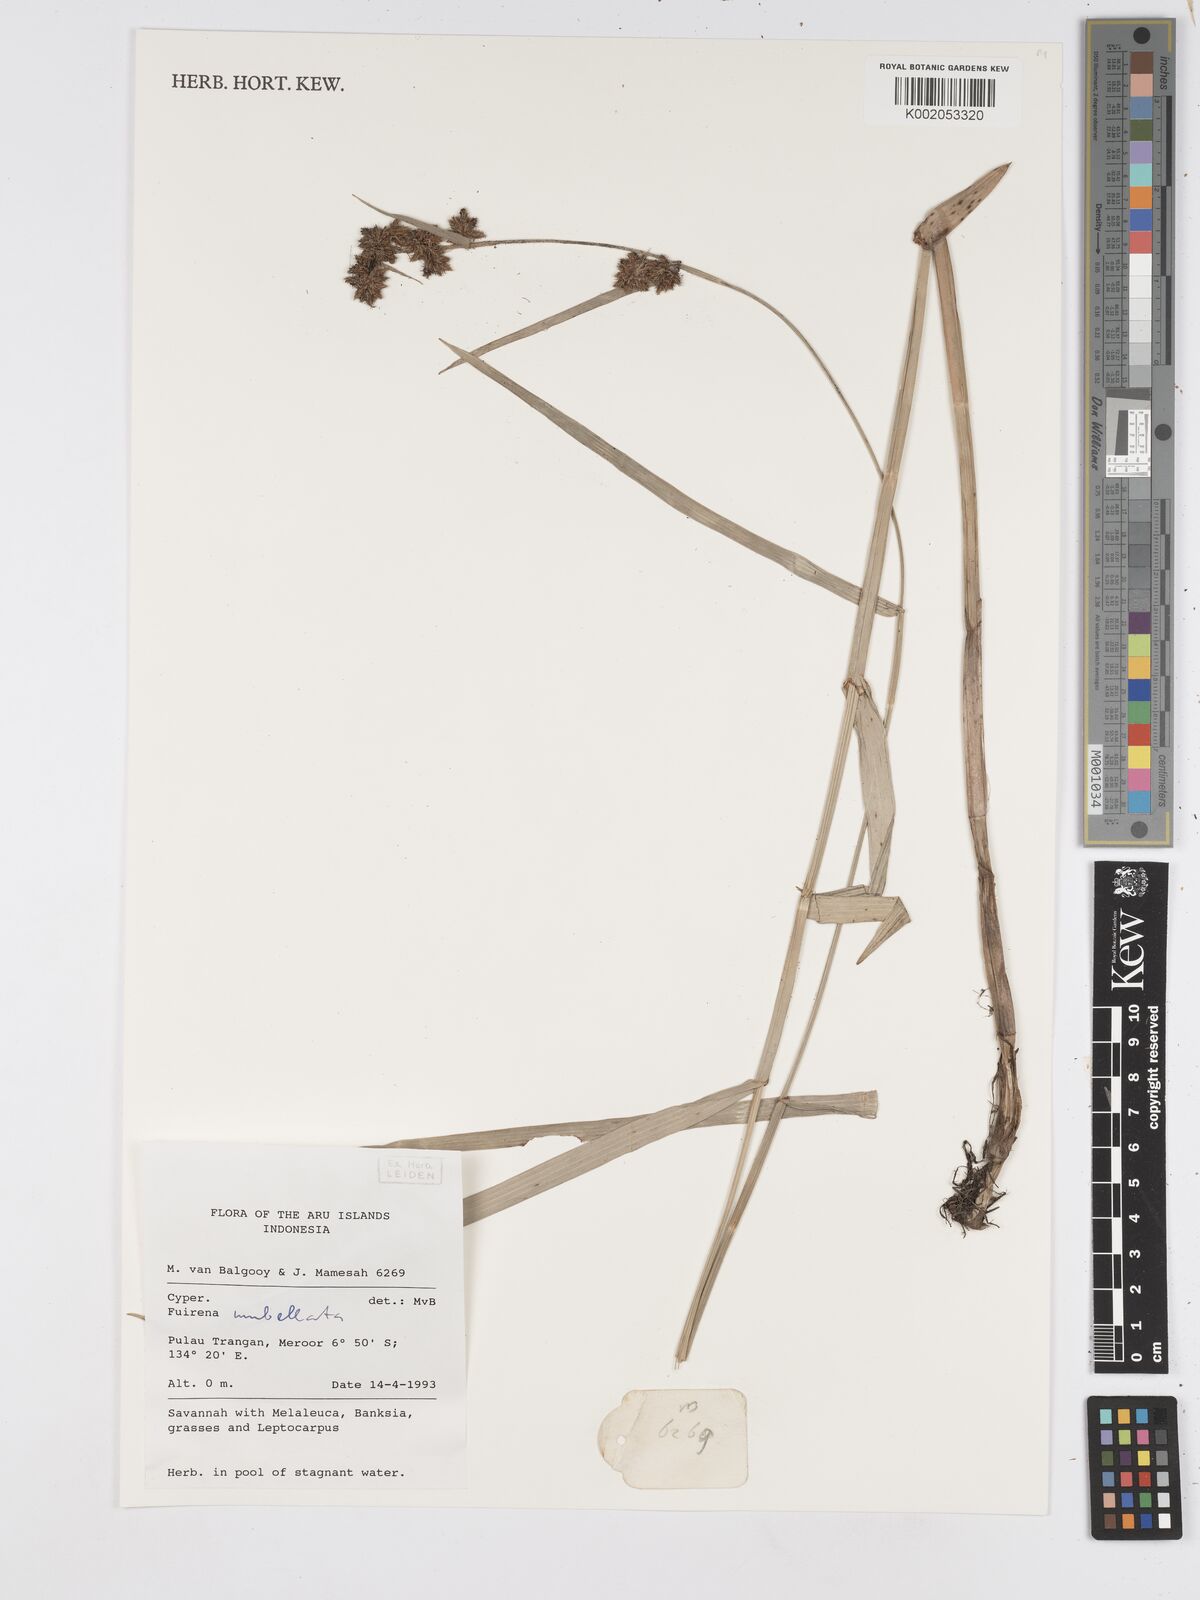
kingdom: Plantae
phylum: Tracheophyta
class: Liliopsida
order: Poales
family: Cyperaceae
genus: Fuirena
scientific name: Fuirena umbellata
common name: Yefen
